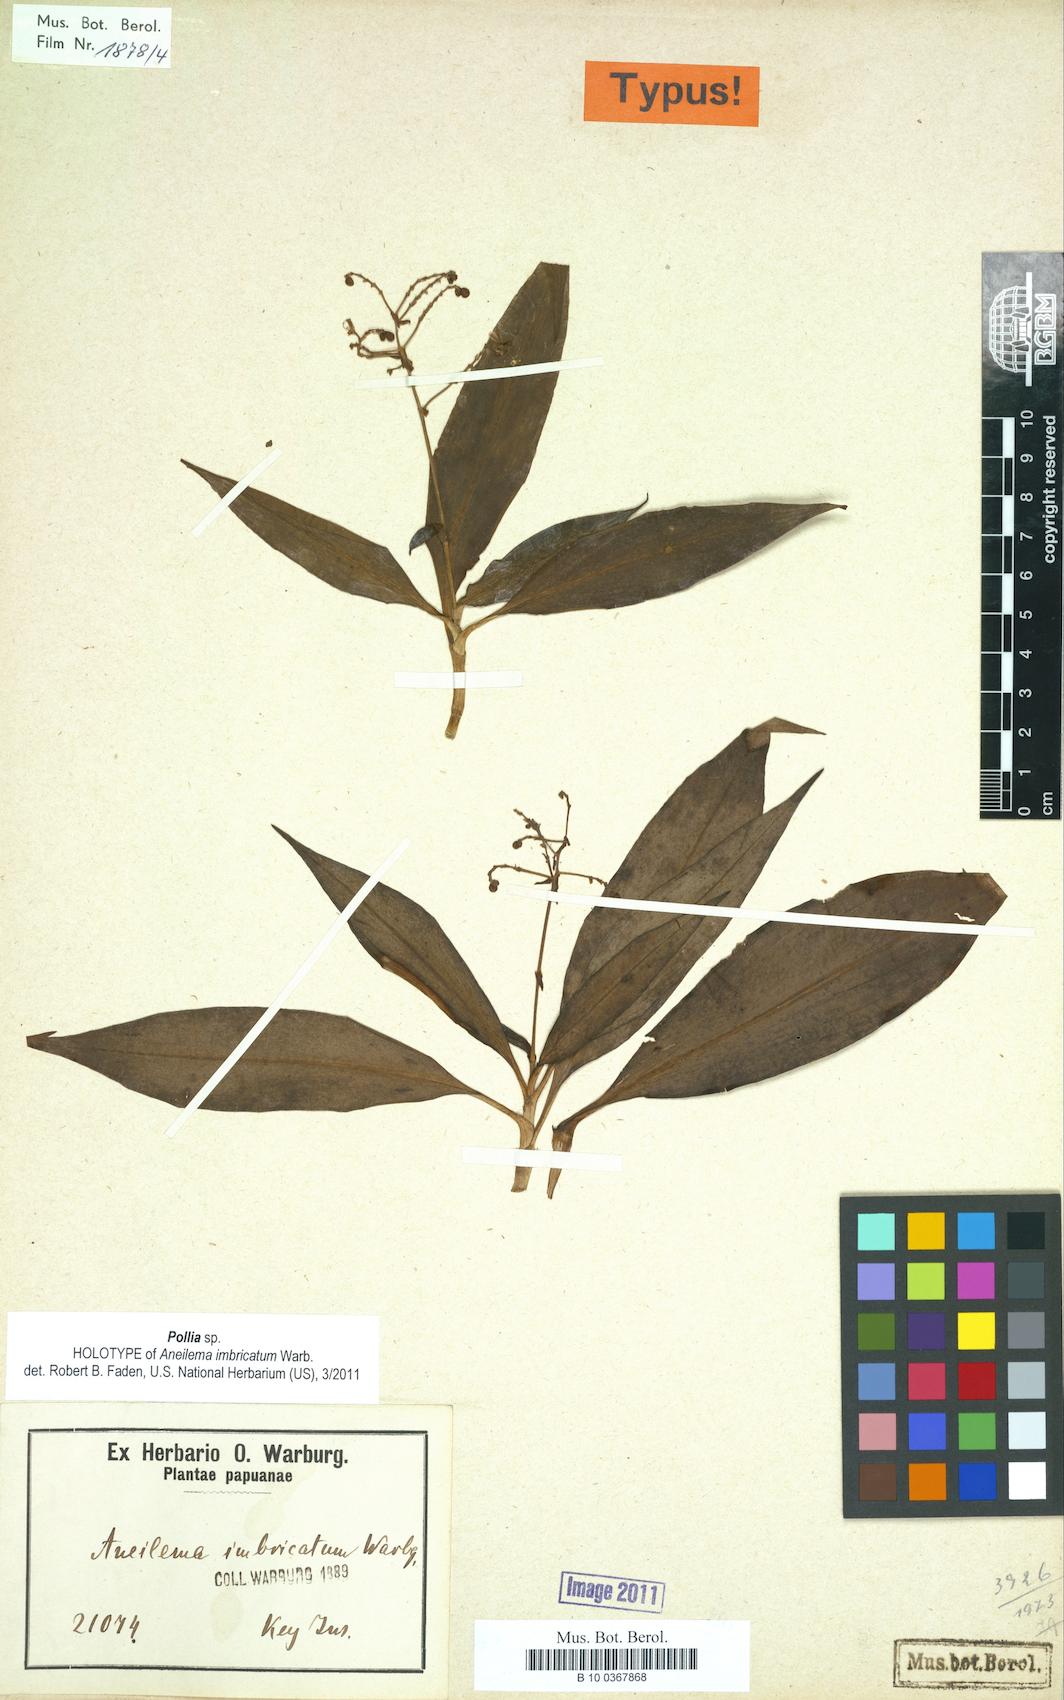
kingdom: Plantae
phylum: Tracheophyta
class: Liliopsida
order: Commelinales
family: Commelinaceae
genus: Pollia
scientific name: Pollia secundiflora
